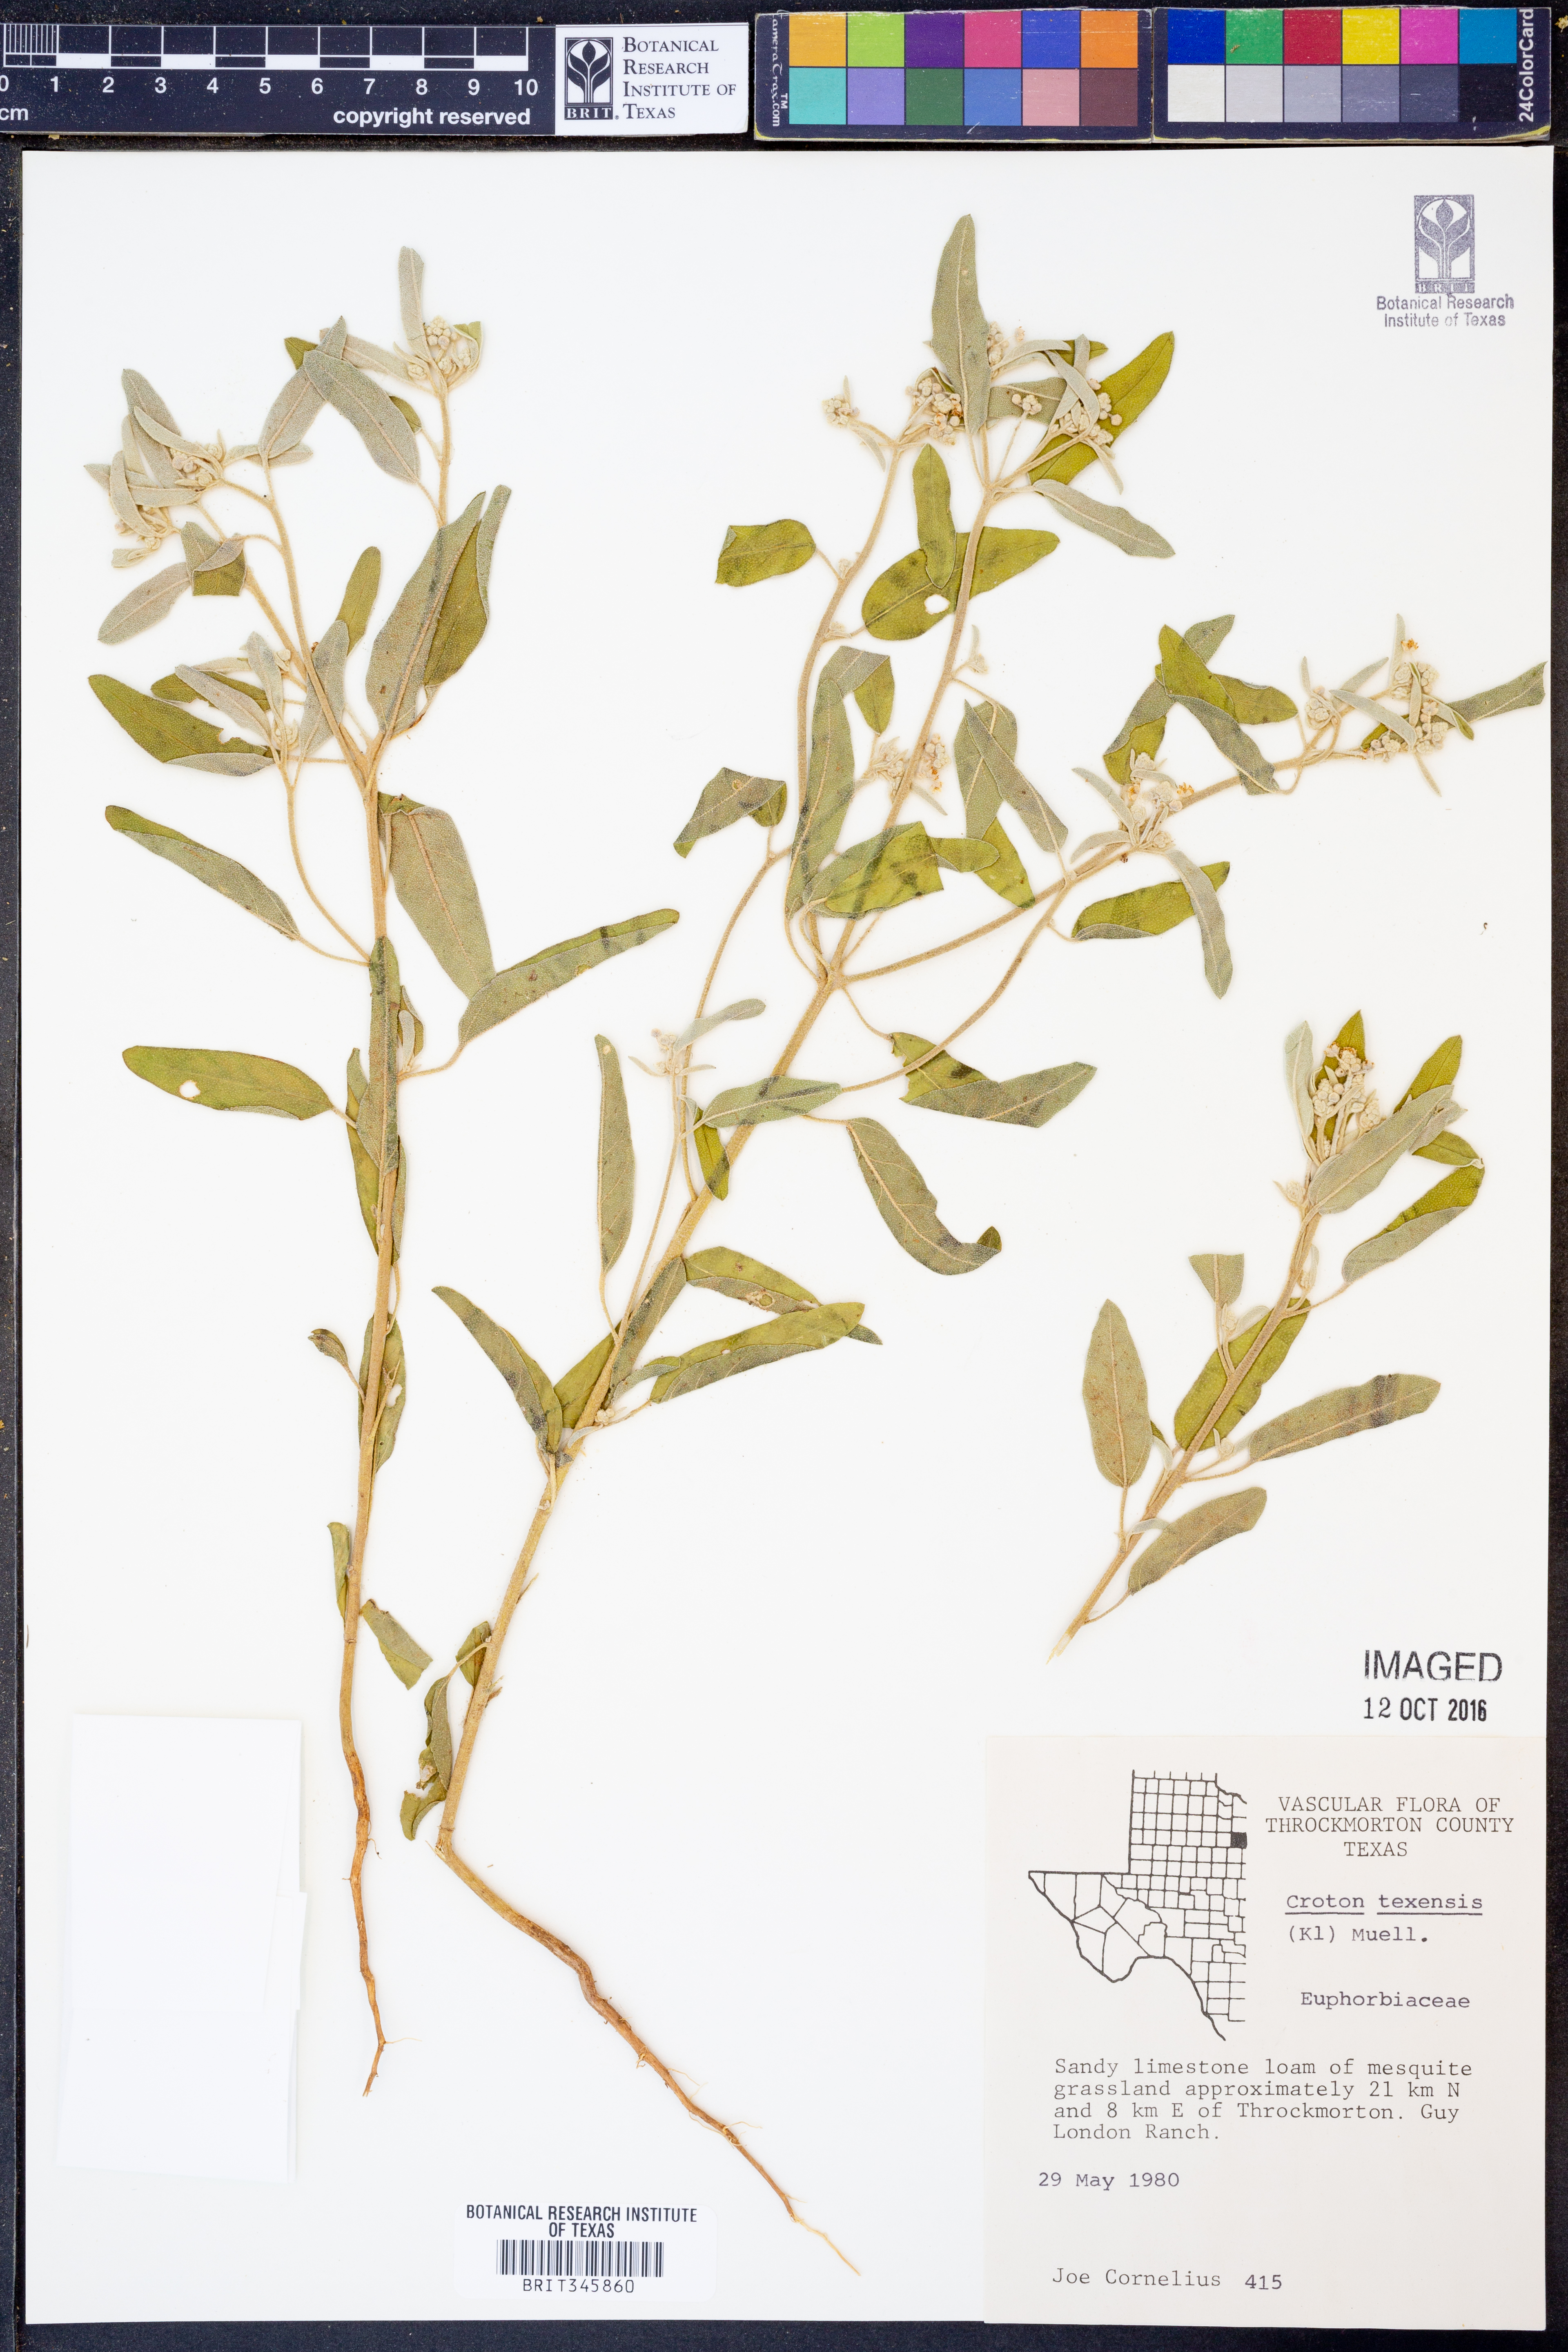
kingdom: Plantae
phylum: Tracheophyta
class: Magnoliopsida
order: Malpighiales
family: Euphorbiaceae
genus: Croton
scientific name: Croton texensis
